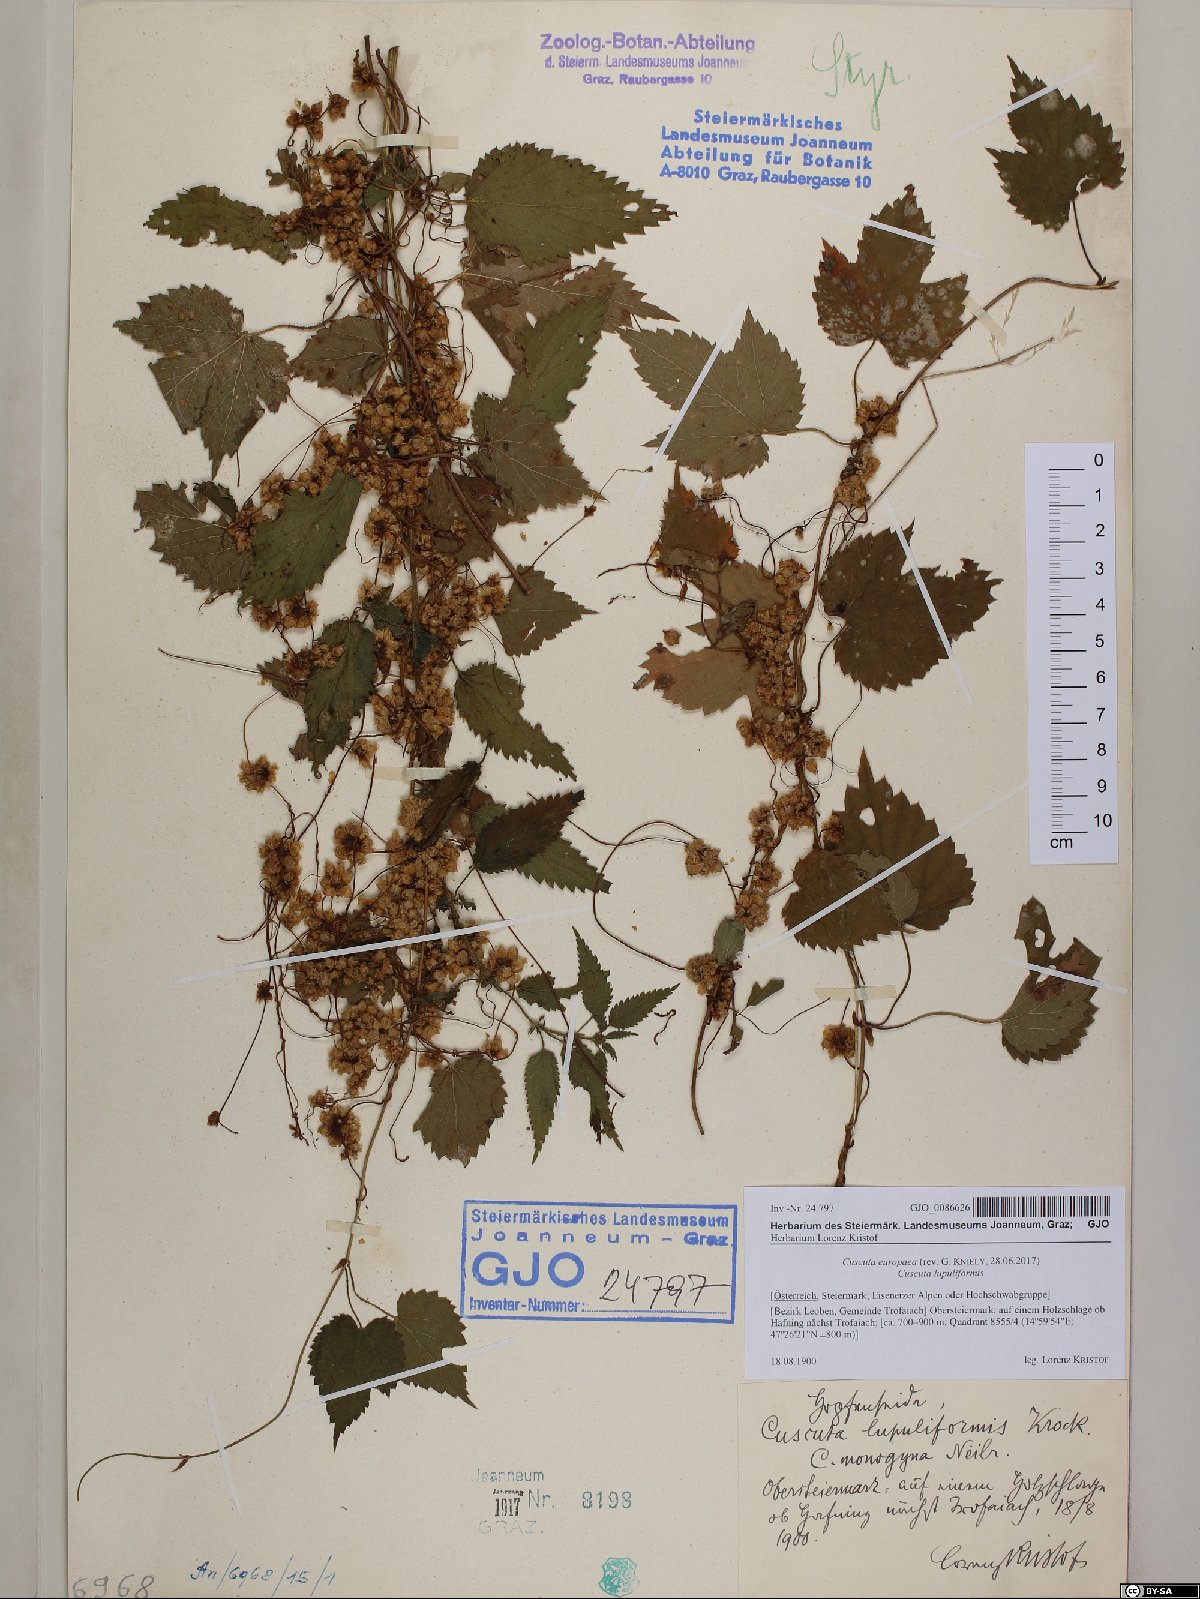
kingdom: Plantae
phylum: Tracheophyta
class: Magnoliopsida
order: Solanales
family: Convolvulaceae
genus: Cuscuta
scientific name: Cuscuta europaea
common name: Greater dodder
